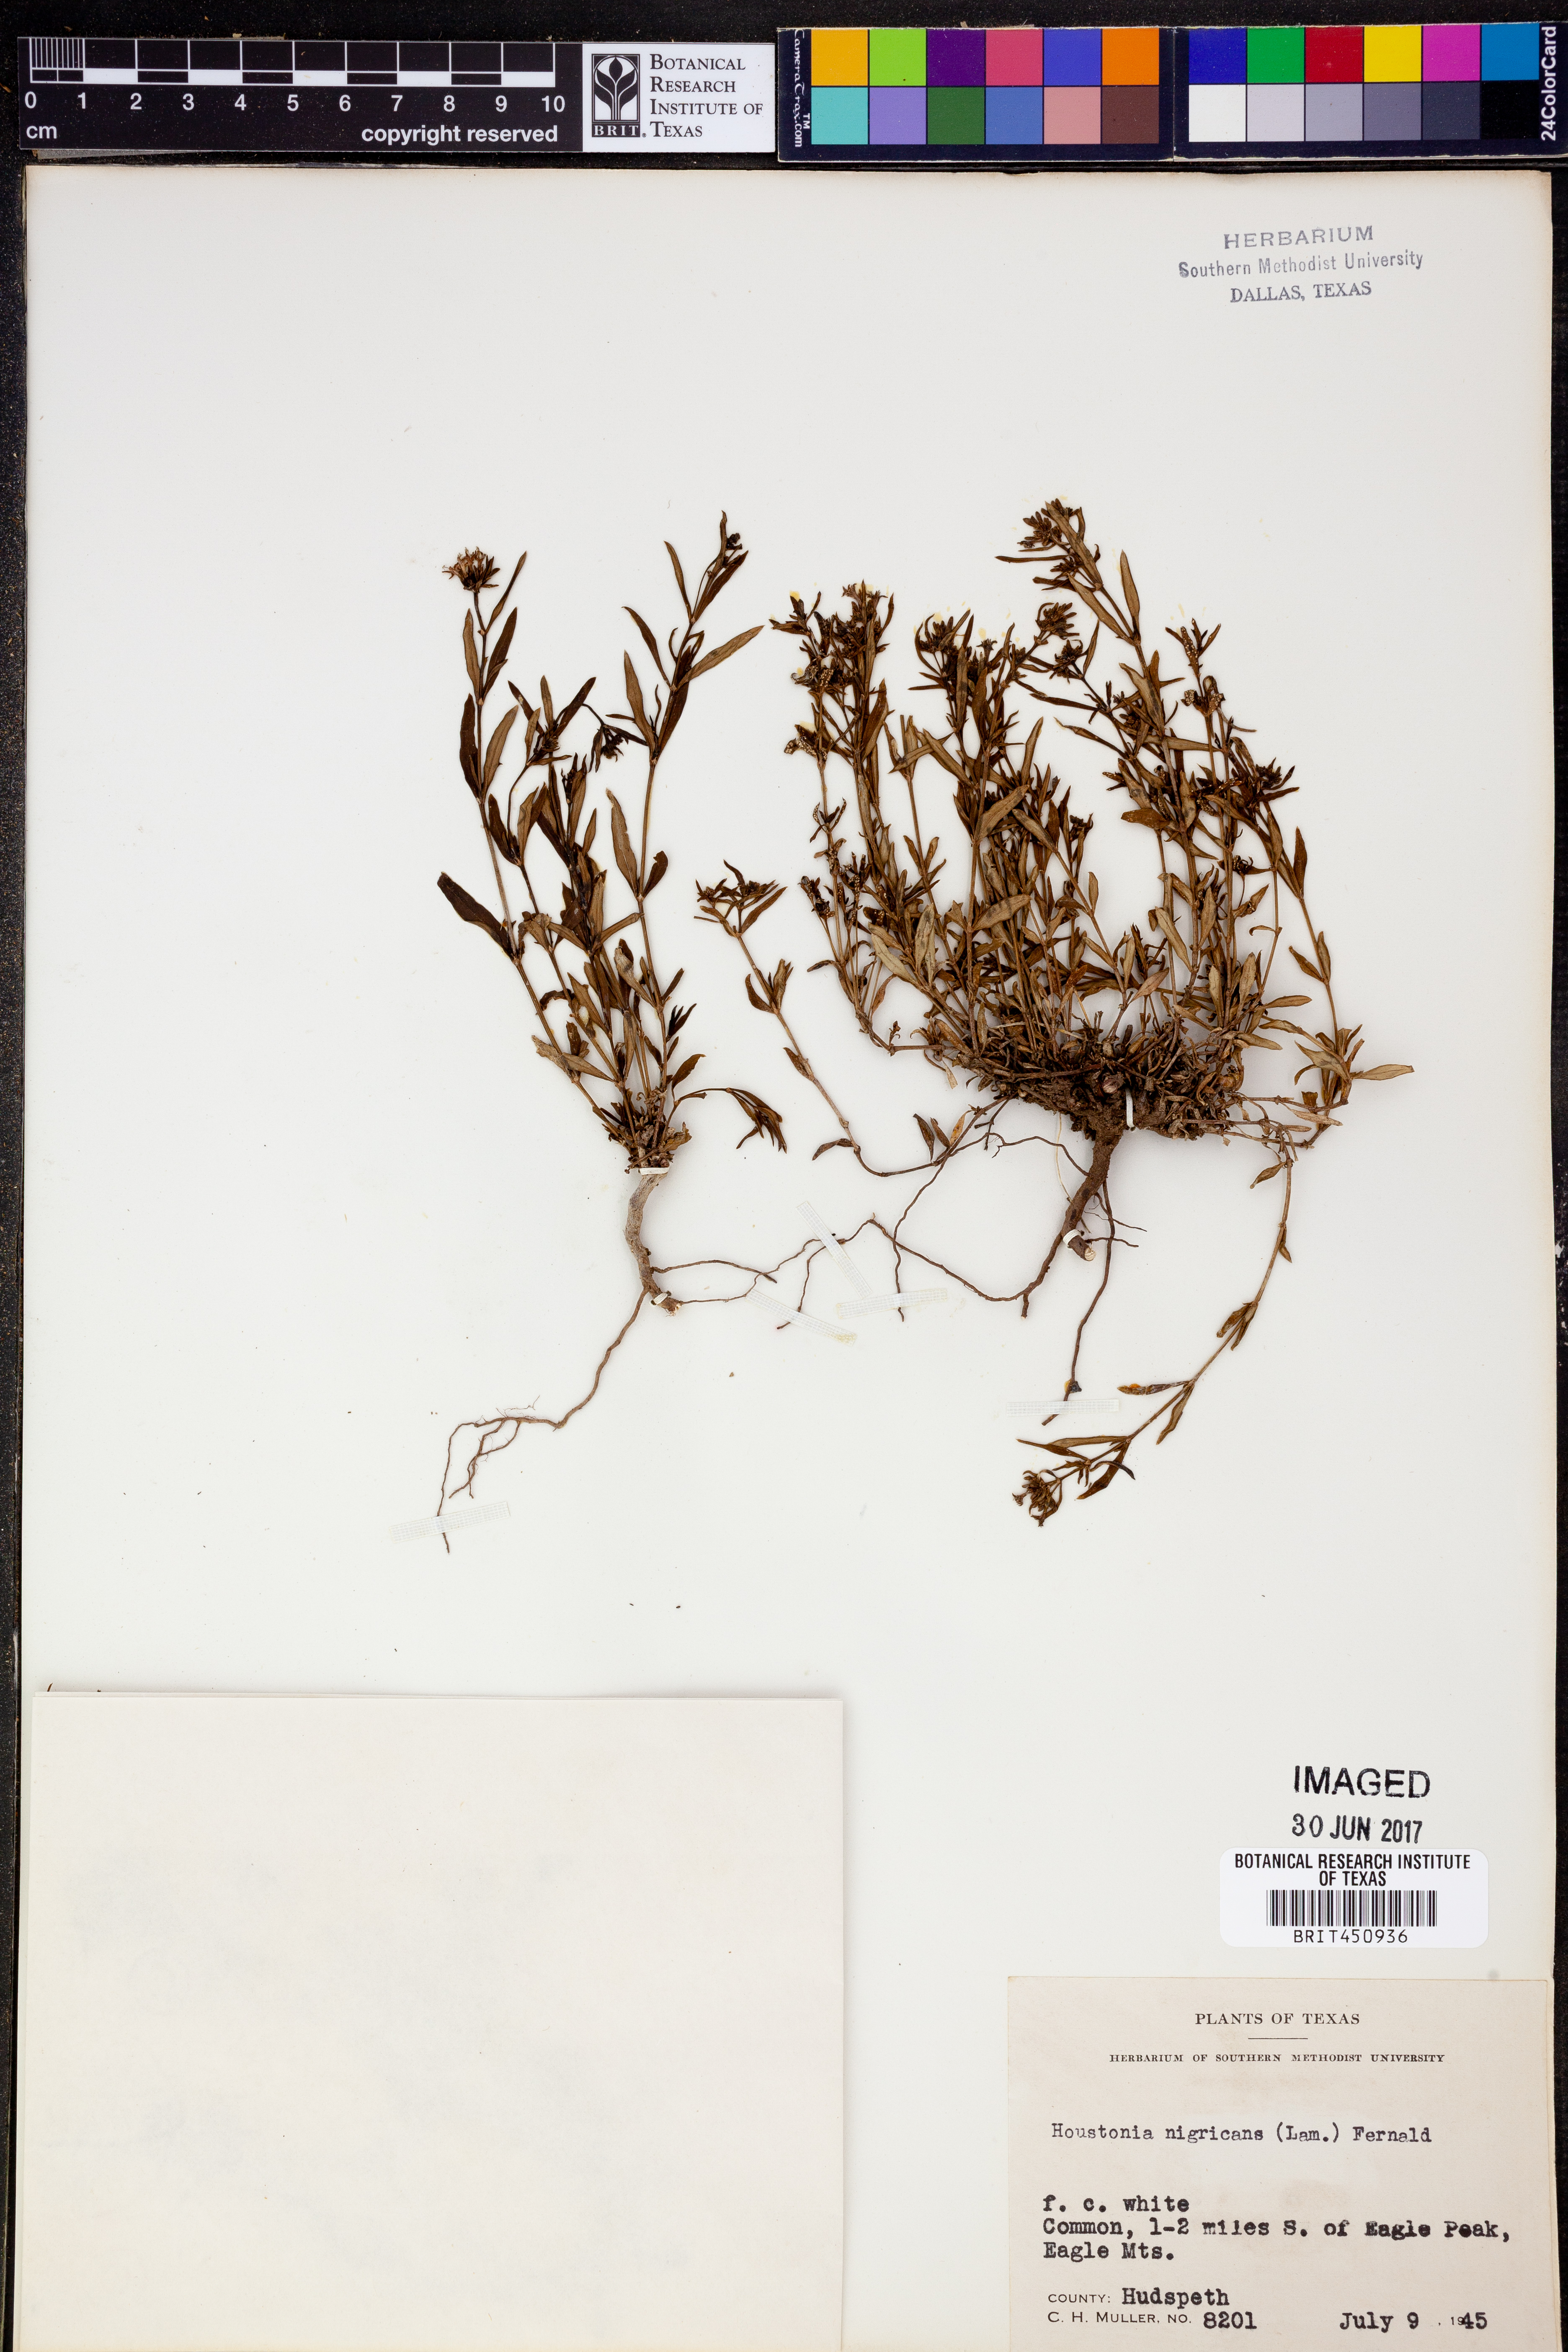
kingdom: Plantae
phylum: Tracheophyta
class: Magnoliopsida
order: Gentianales
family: Rubiaceae
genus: Stenaria
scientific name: Stenaria nigricans
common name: Diamondflowers
